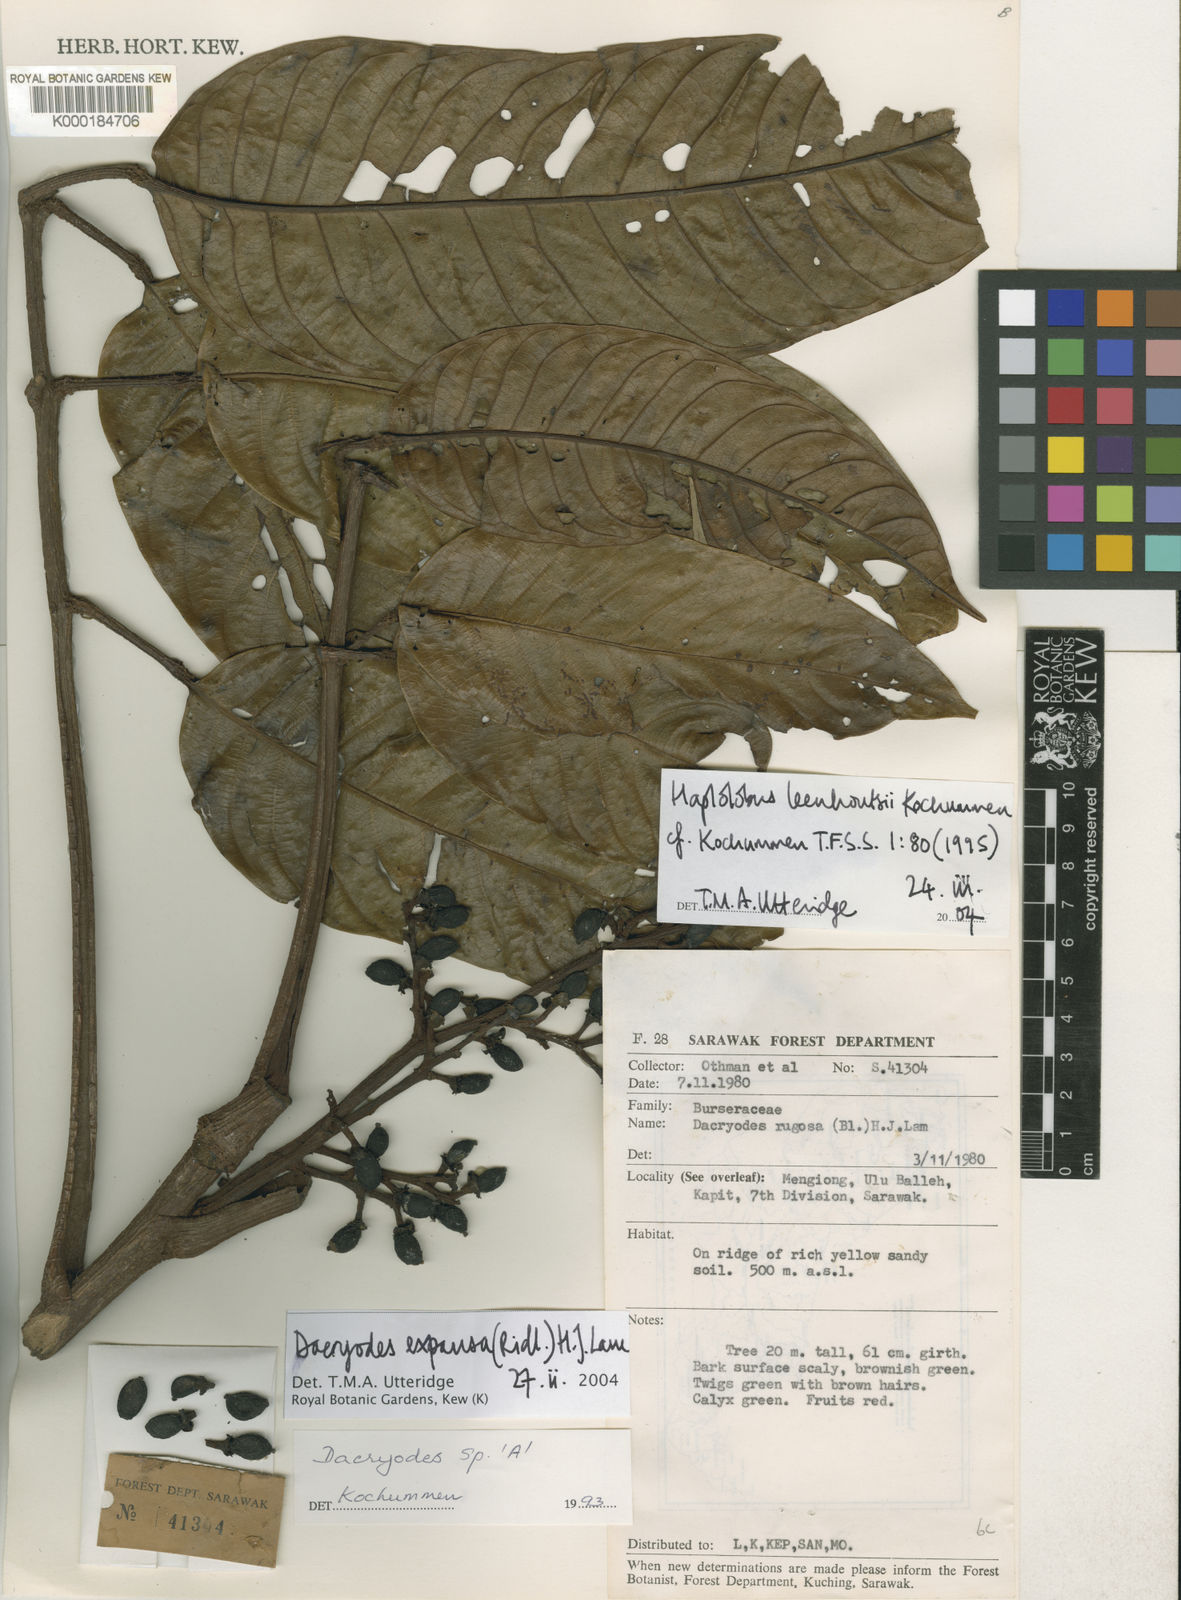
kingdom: Plantae
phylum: Tracheophyta
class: Magnoliopsida
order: Sapindales
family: Burseraceae
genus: Dacryodes
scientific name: Dacryodes expansa
